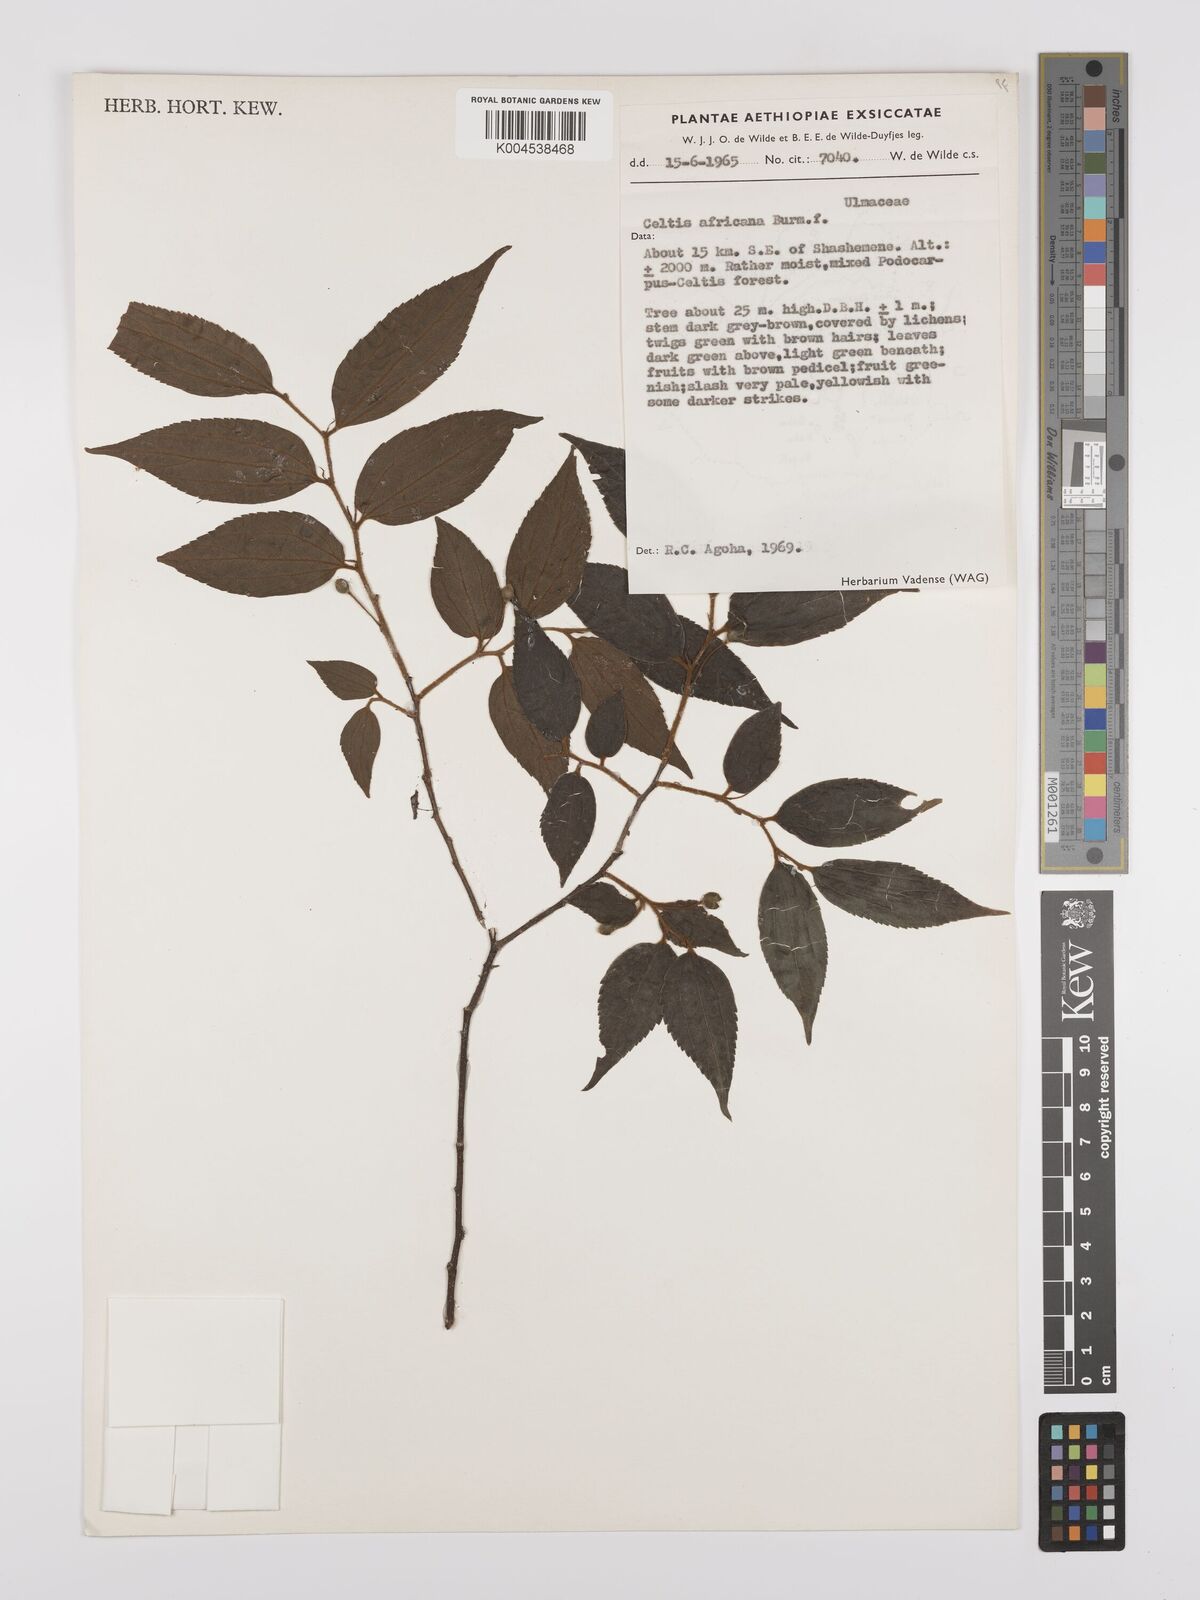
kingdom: Plantae
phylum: Tracheophyta
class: Magnoliopsida
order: Rosales
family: Cannabaceae
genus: Celtis
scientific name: Celtis africana
